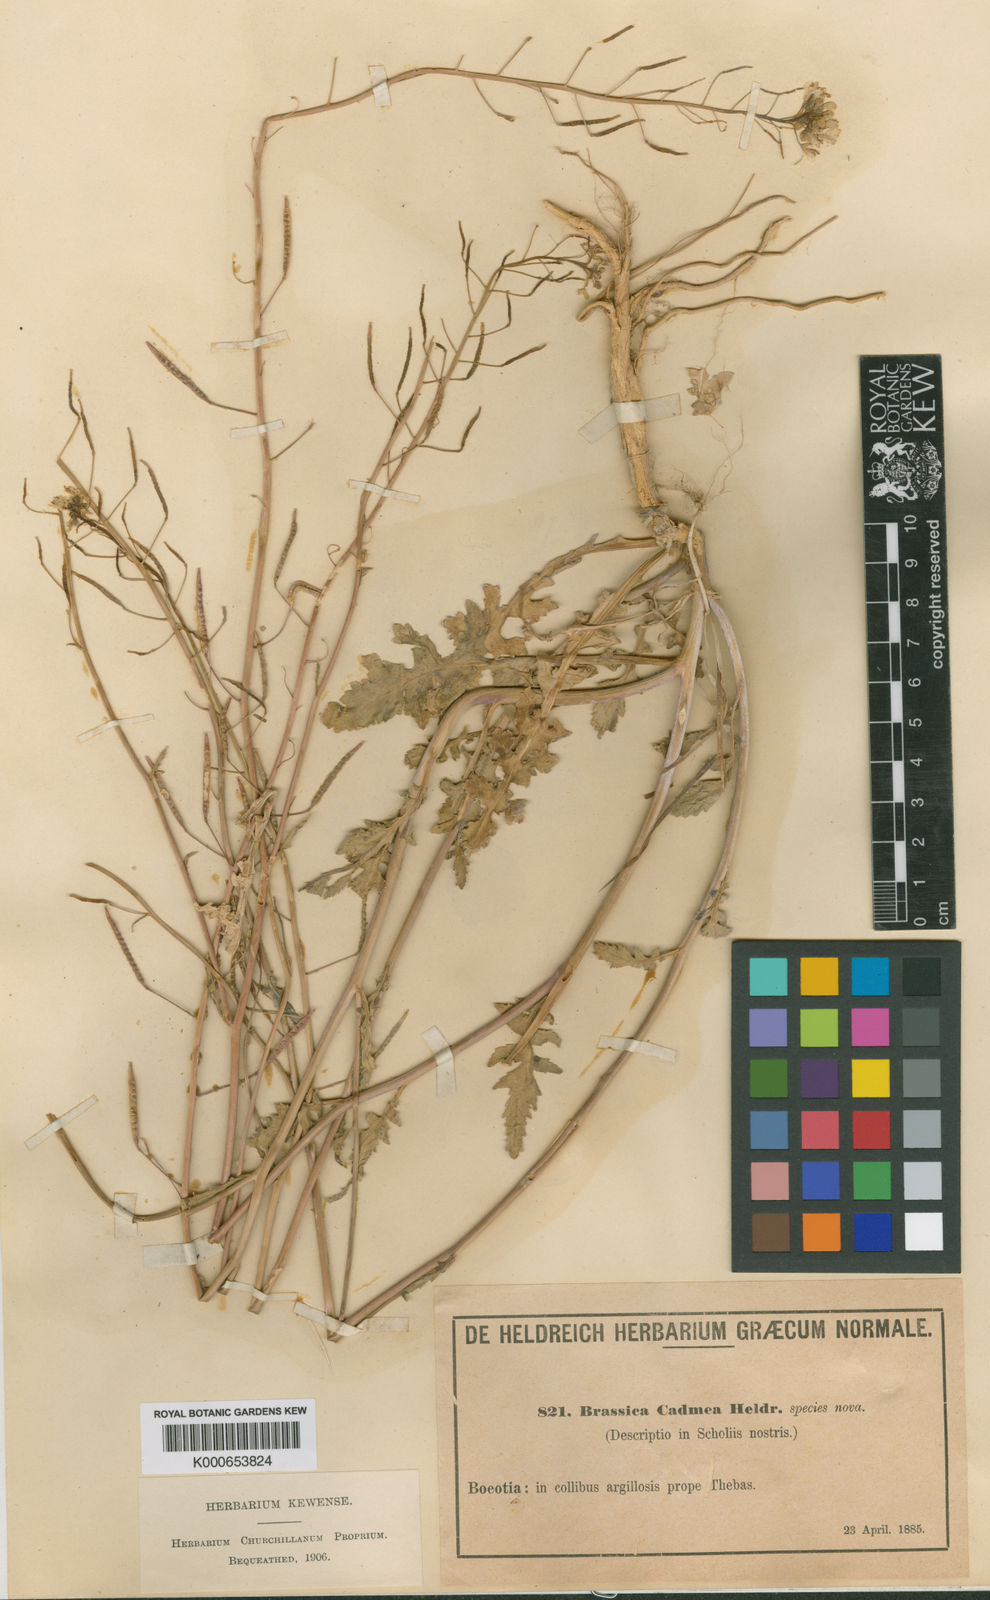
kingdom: Plantae
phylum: Tracheophyta
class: Magnoliopsida
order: Brassicales
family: Brassicaceae
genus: Brassica
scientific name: Brassica cadmea
